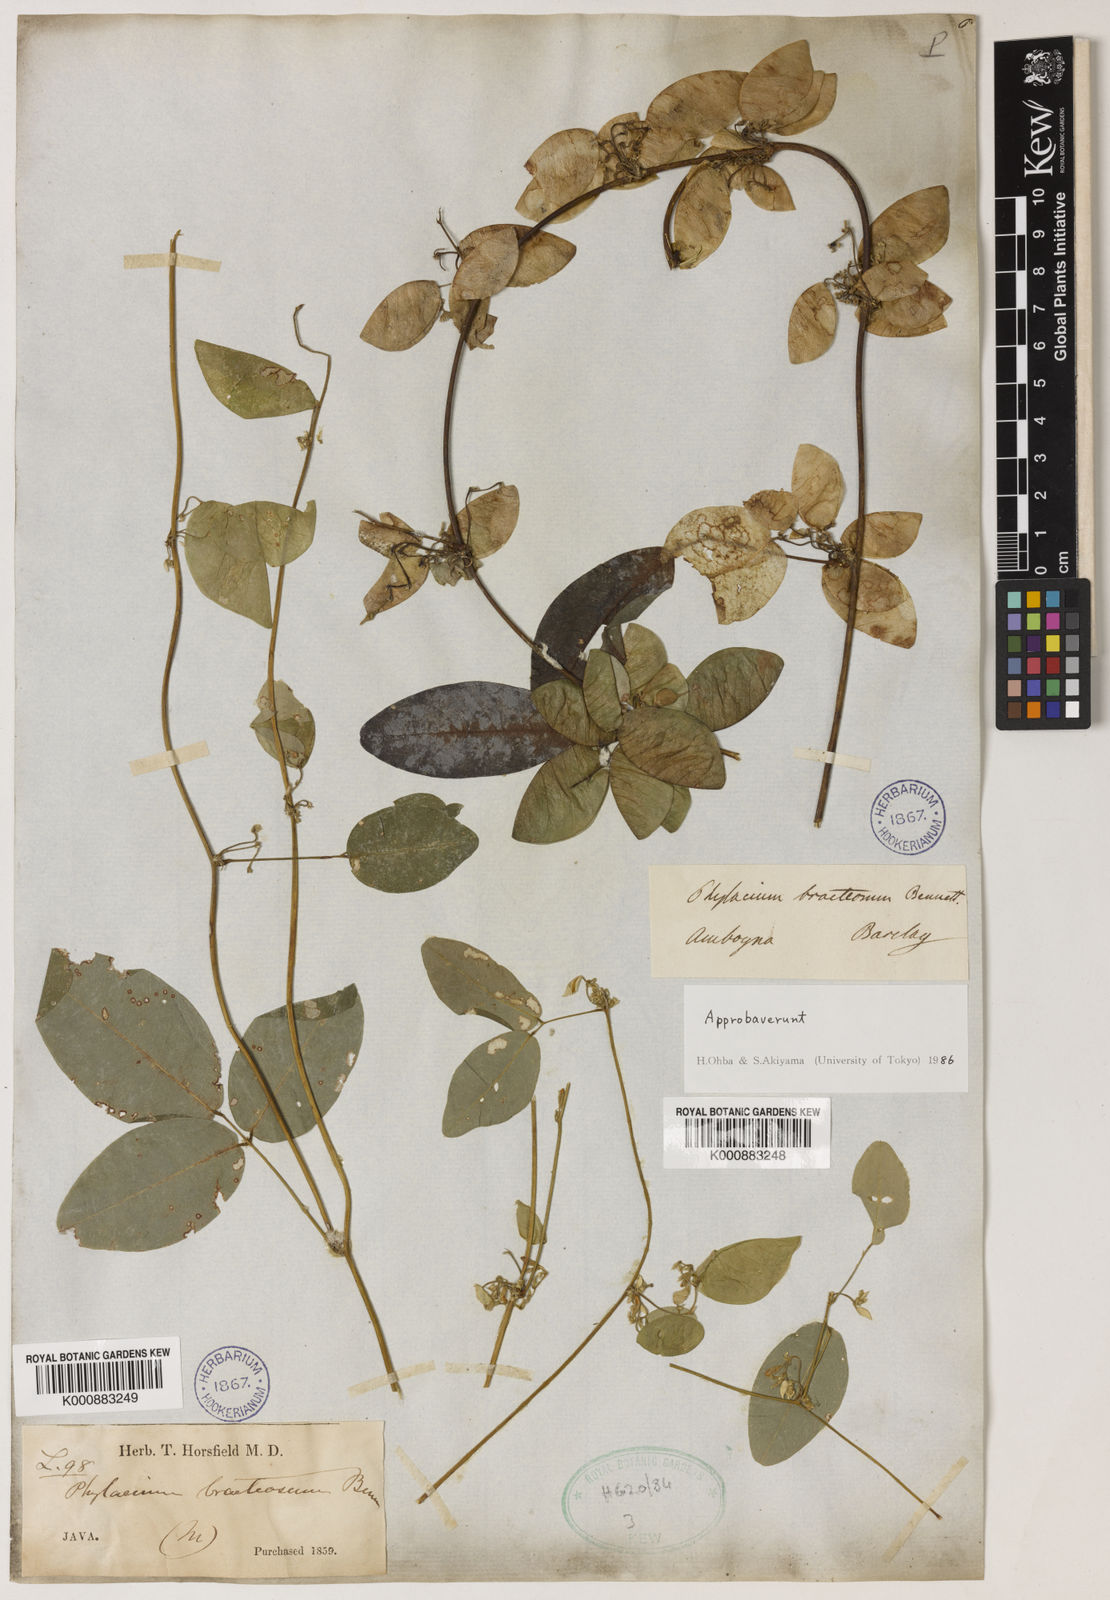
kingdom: Plantae
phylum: Tracheophyta
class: Magnoliopsida
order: Fabales
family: Fabaceae
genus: Phylacium
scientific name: Phylacium bracteosum
